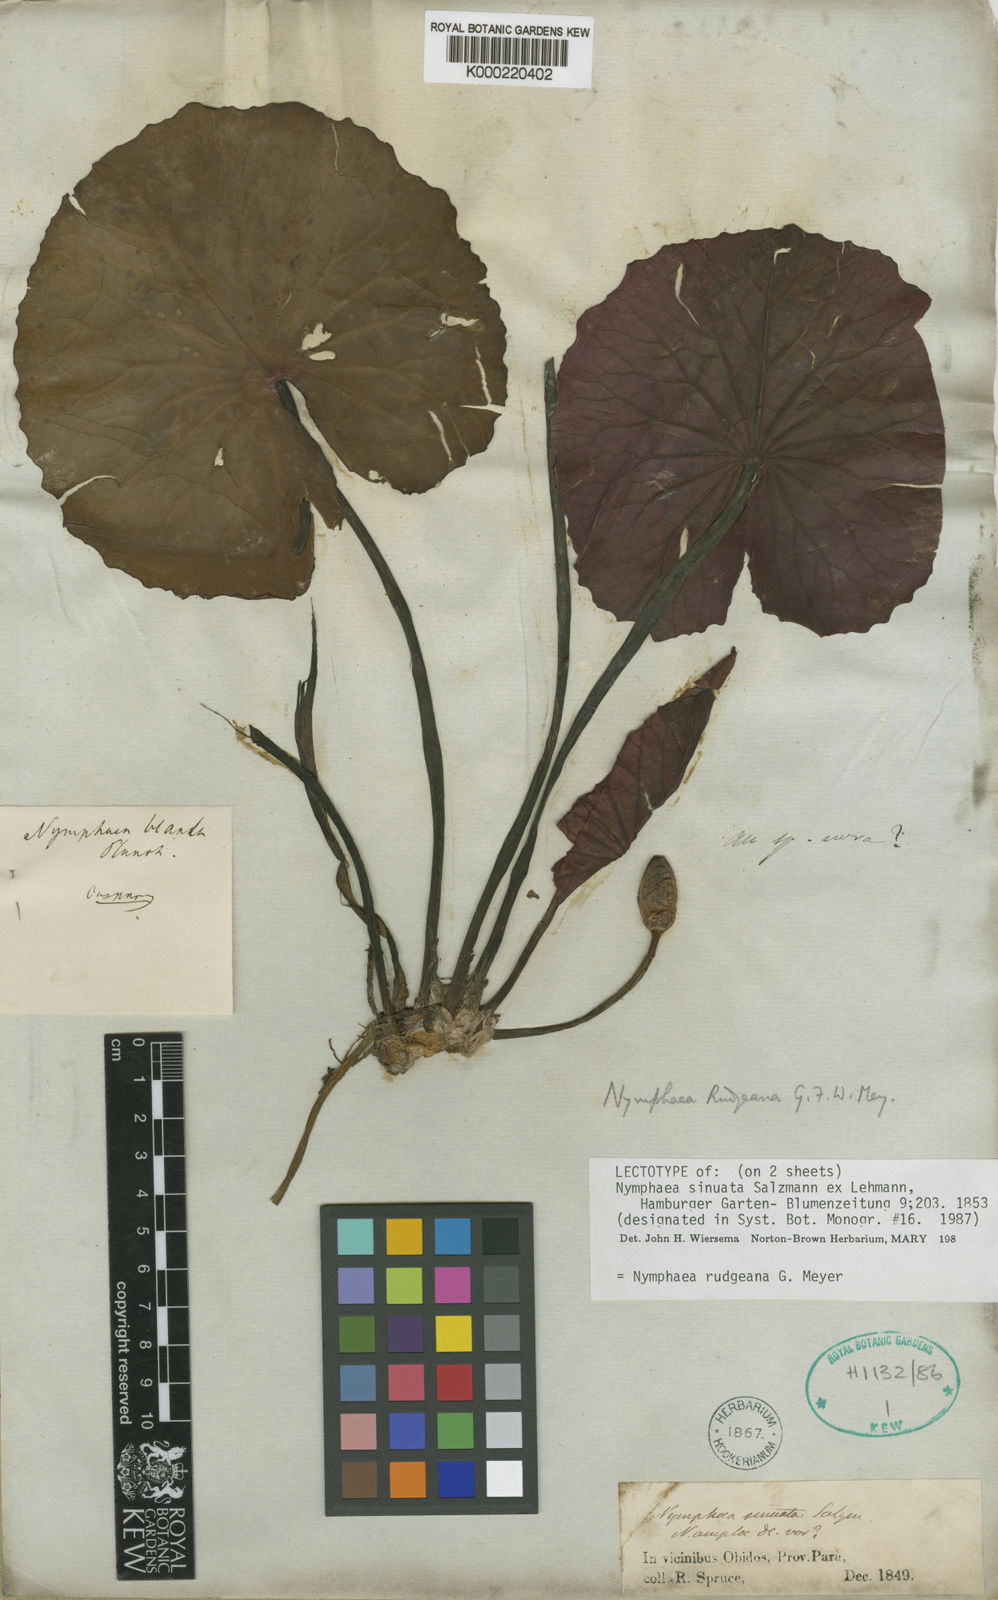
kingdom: Plantae
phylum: Tracheophyta
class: Magnoliopsida
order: Nymphaeales
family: Nymphaeaceae
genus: Nymphaea
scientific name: Nymphaea rudgeana
